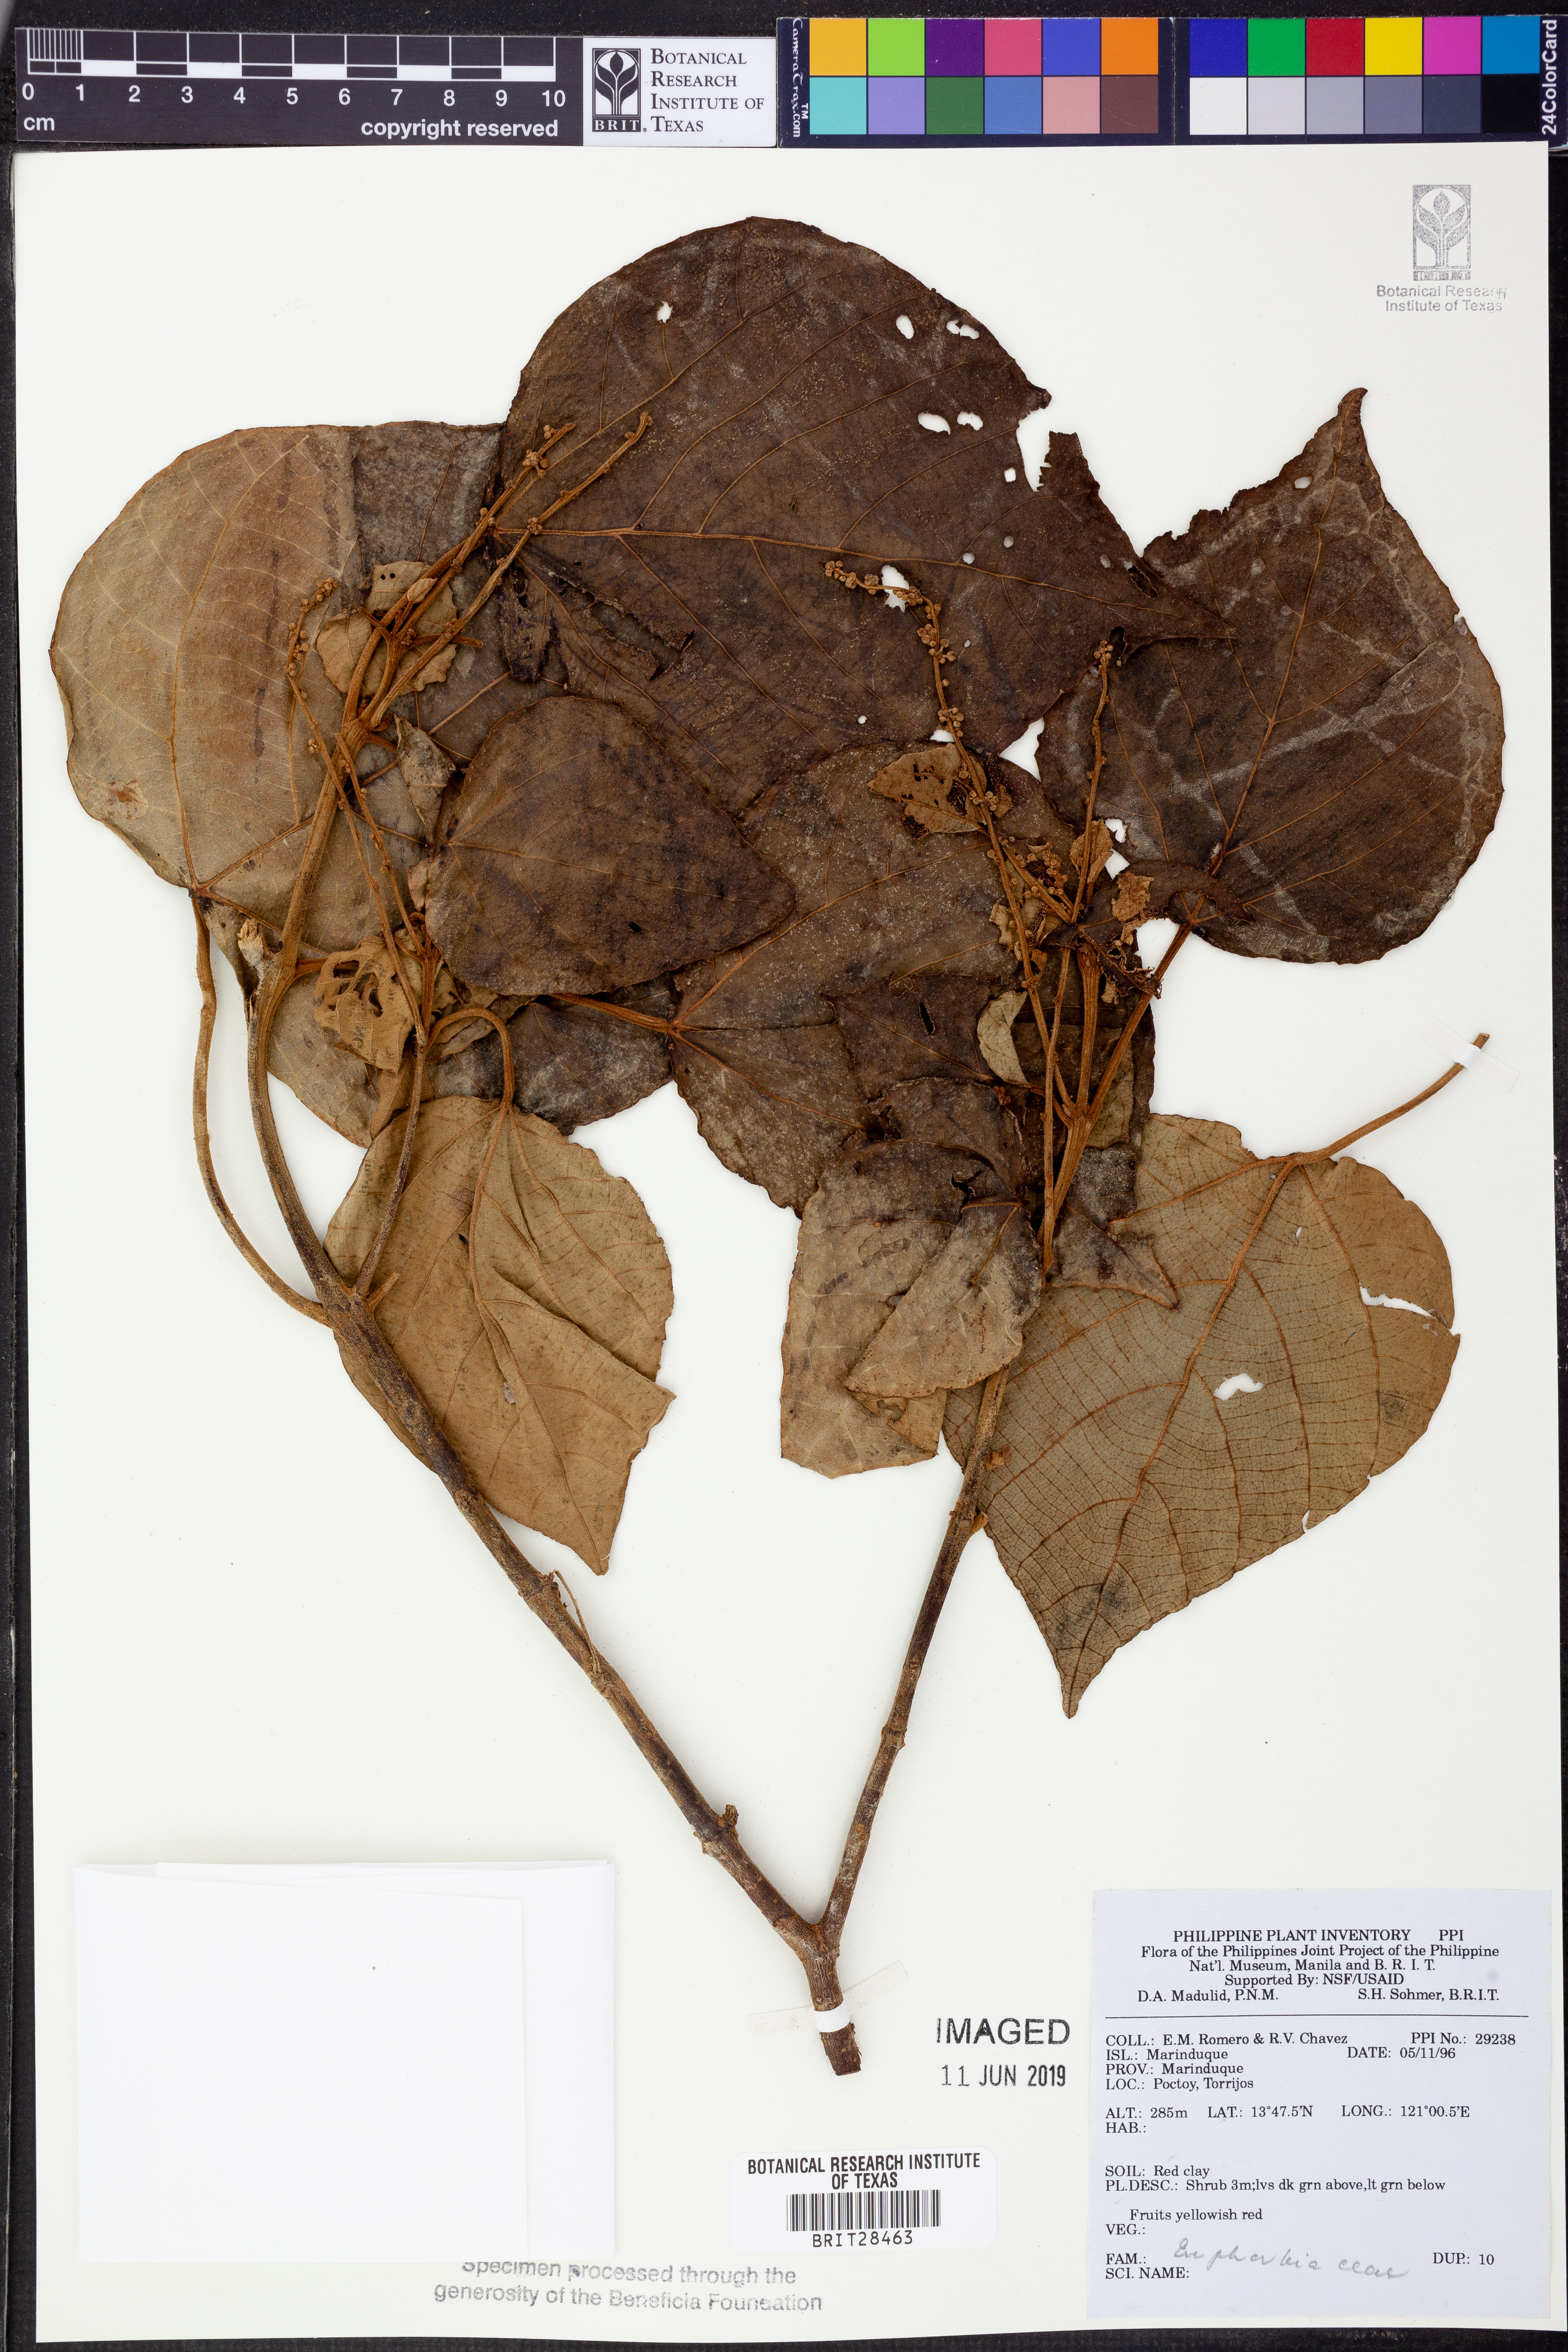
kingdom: Plantae
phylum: Tracheophyta
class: Magnoliopsida
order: Malpighiales
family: Euphorbiaceae
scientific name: Euphorbiaceae
